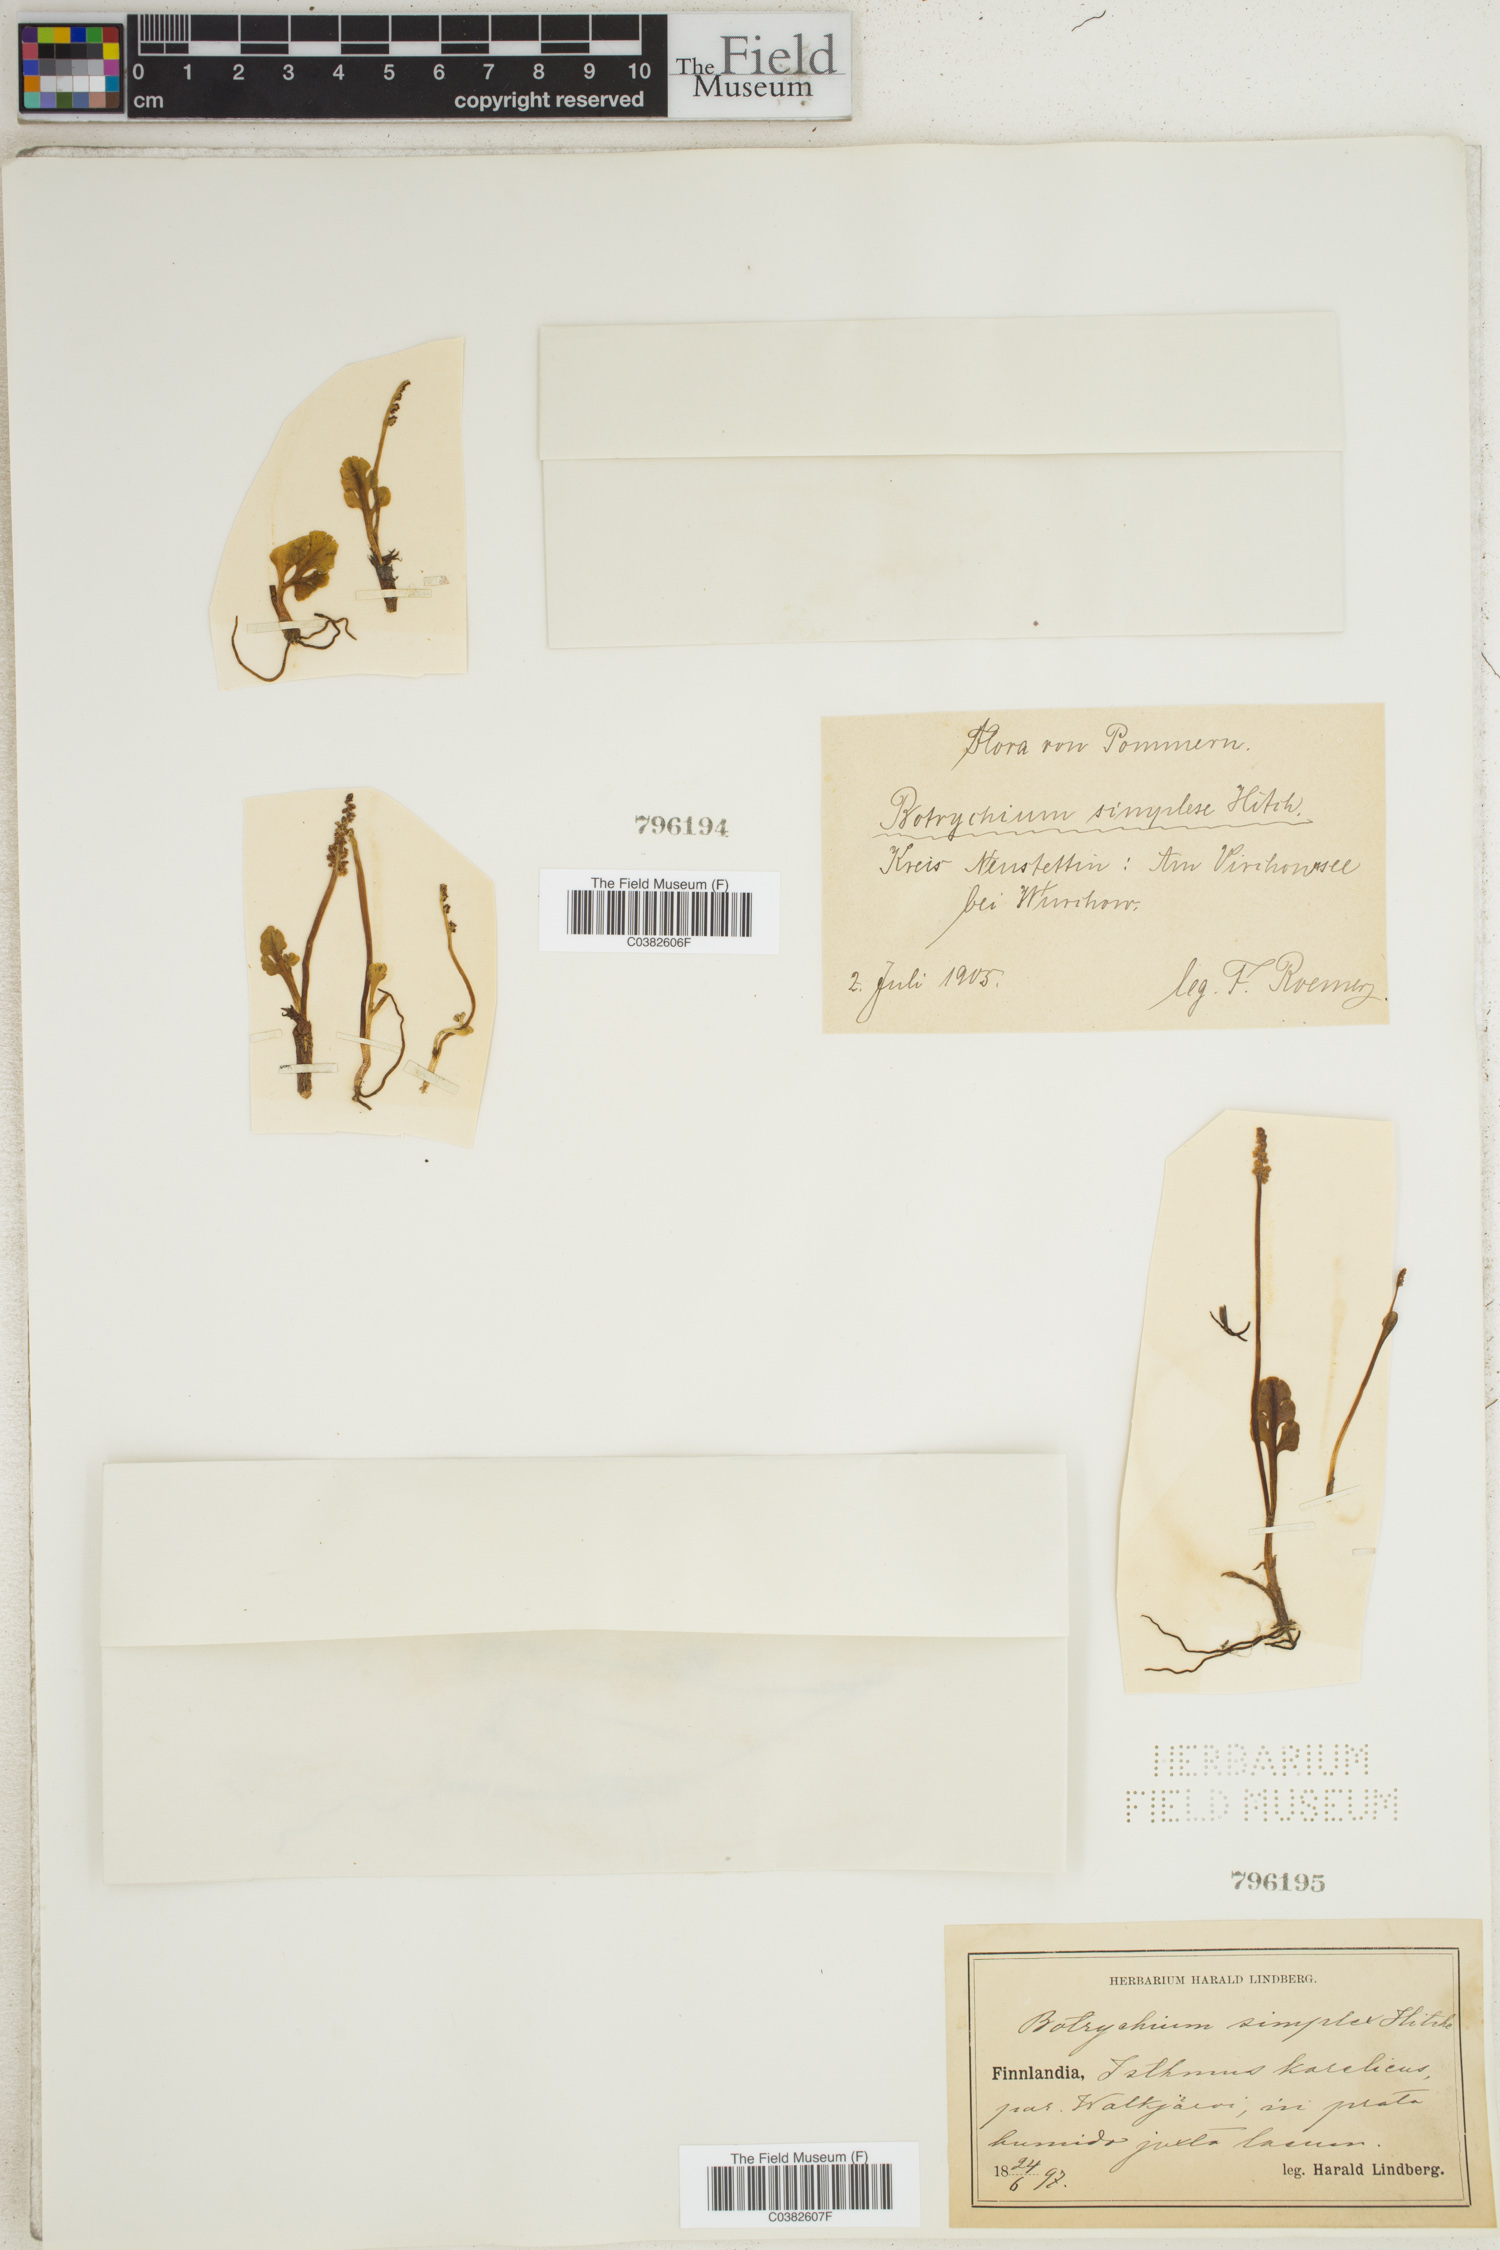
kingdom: Plantae
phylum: Tracheophyta
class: Polypodiopsida
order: Ophioglossales
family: Ophioglossaceae
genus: Botrychium
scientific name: Botrychium simplex
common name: Least moonwort
